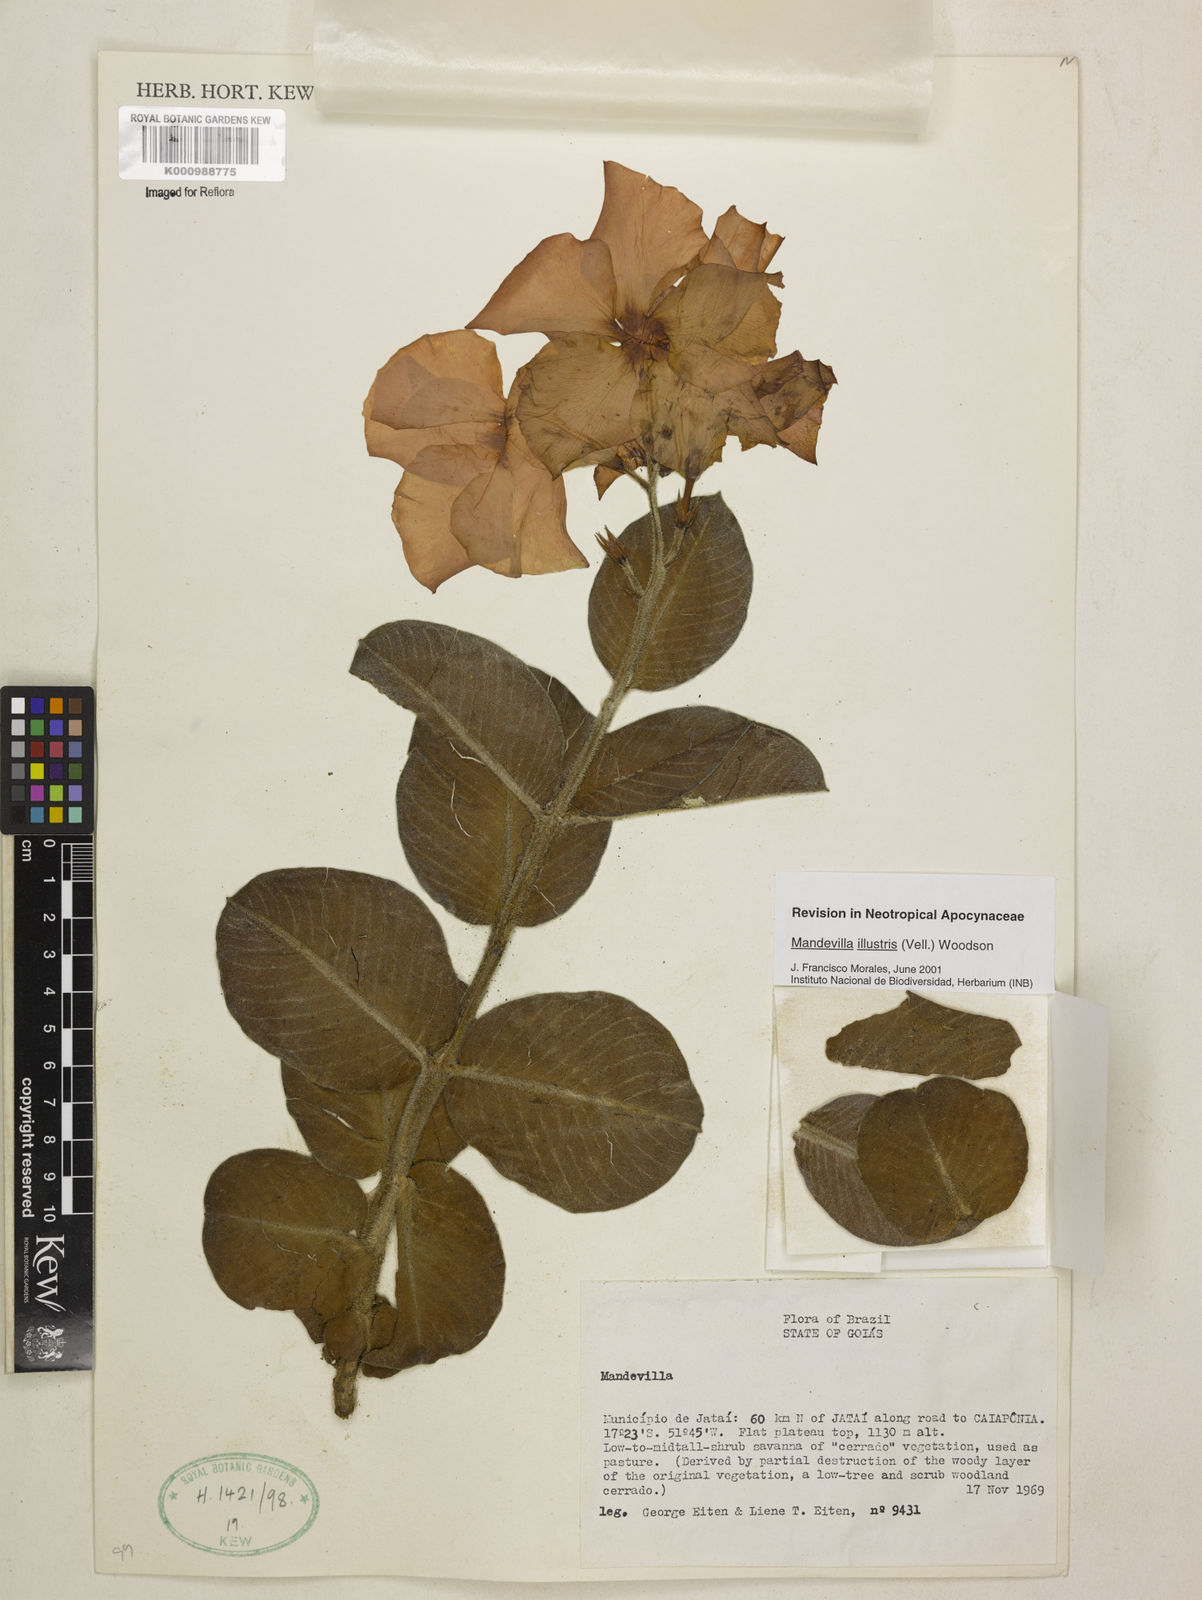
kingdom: Plantae
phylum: Tracheophyta
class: Magnoliopsida
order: Gentianales
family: Apocynaceae
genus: Mandevilla
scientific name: Mandevilla illustris
